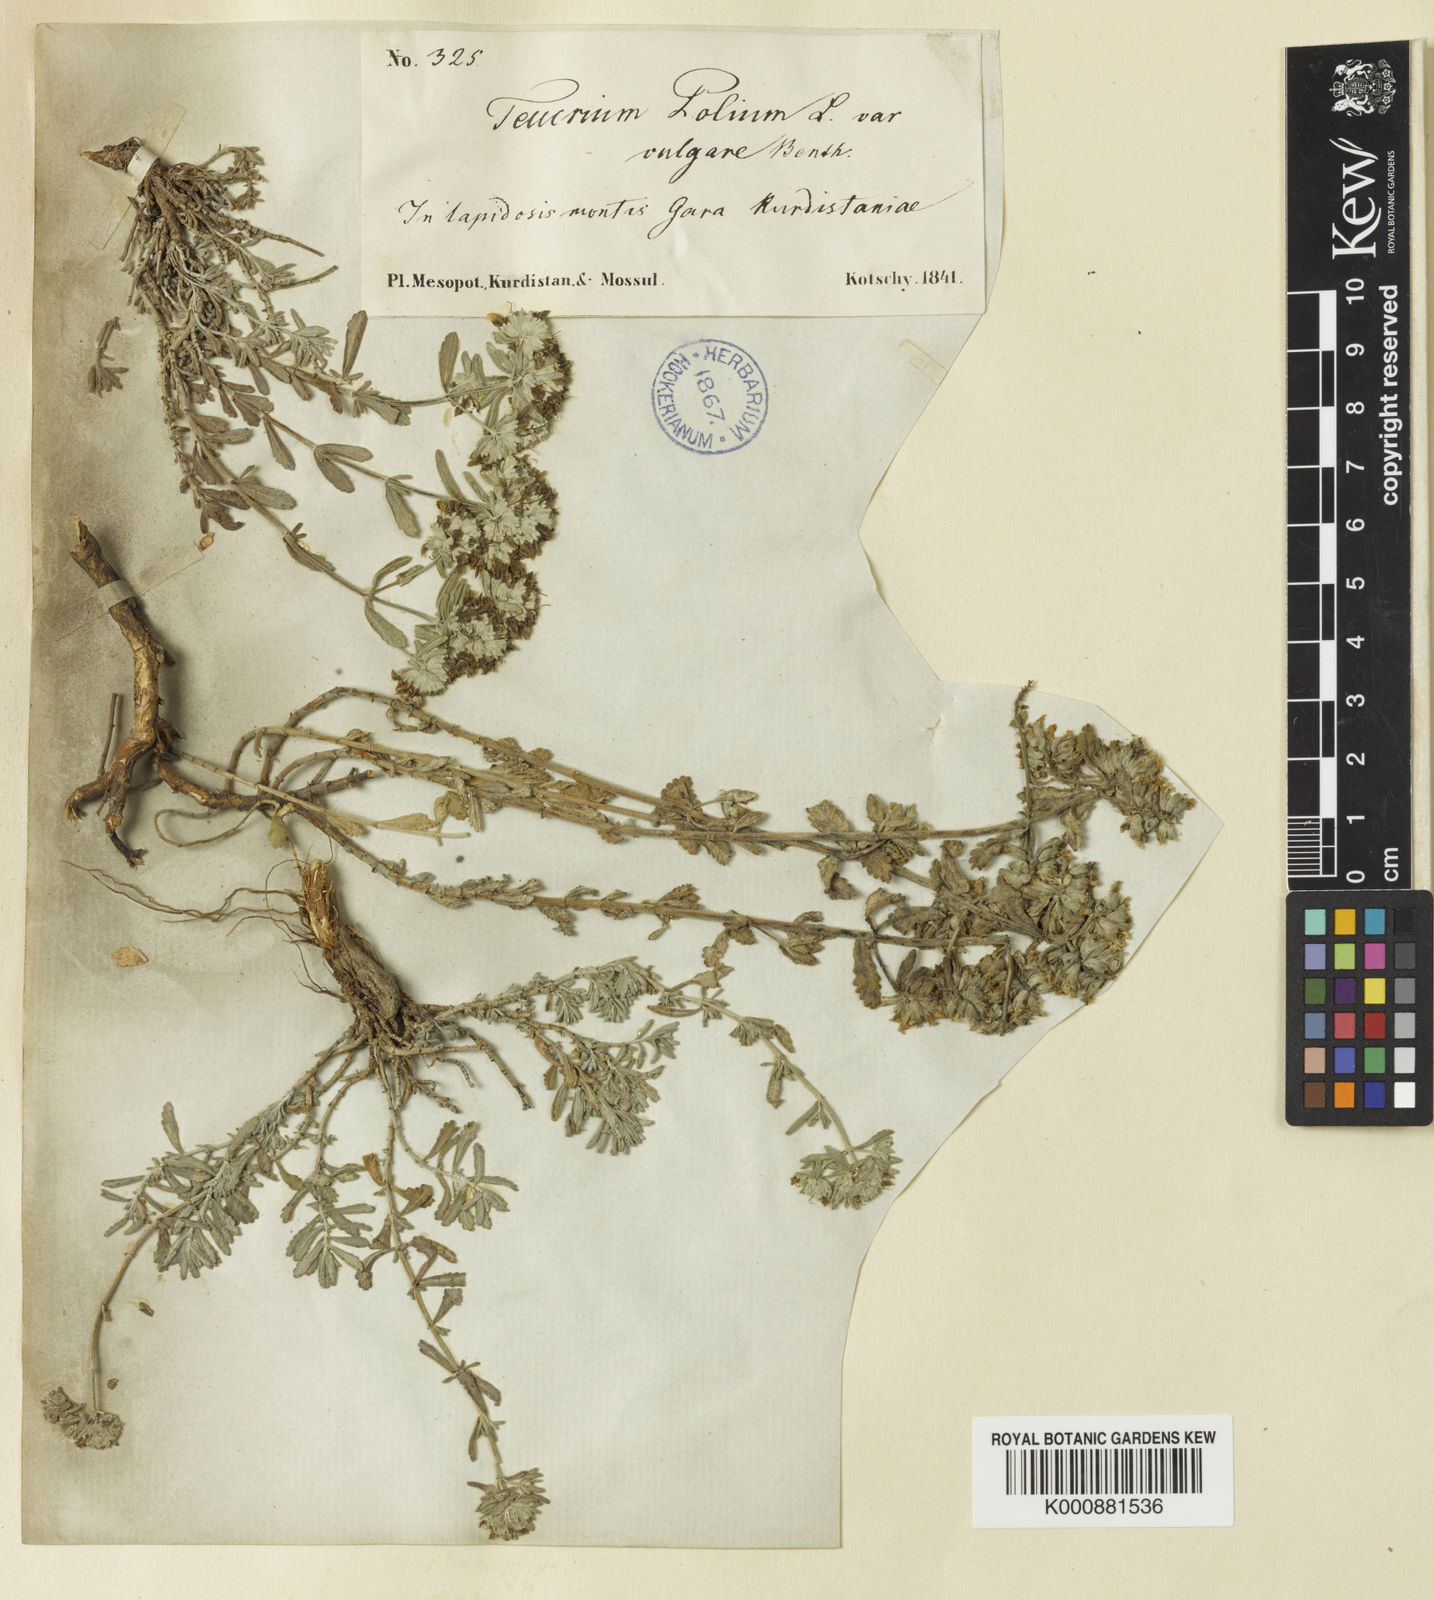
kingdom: Plantae
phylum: Tracheophyta
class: Magnoliopsida
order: Lamiales
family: Lamiaceae
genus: Teucrium
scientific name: Teucrium polium
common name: Poley
